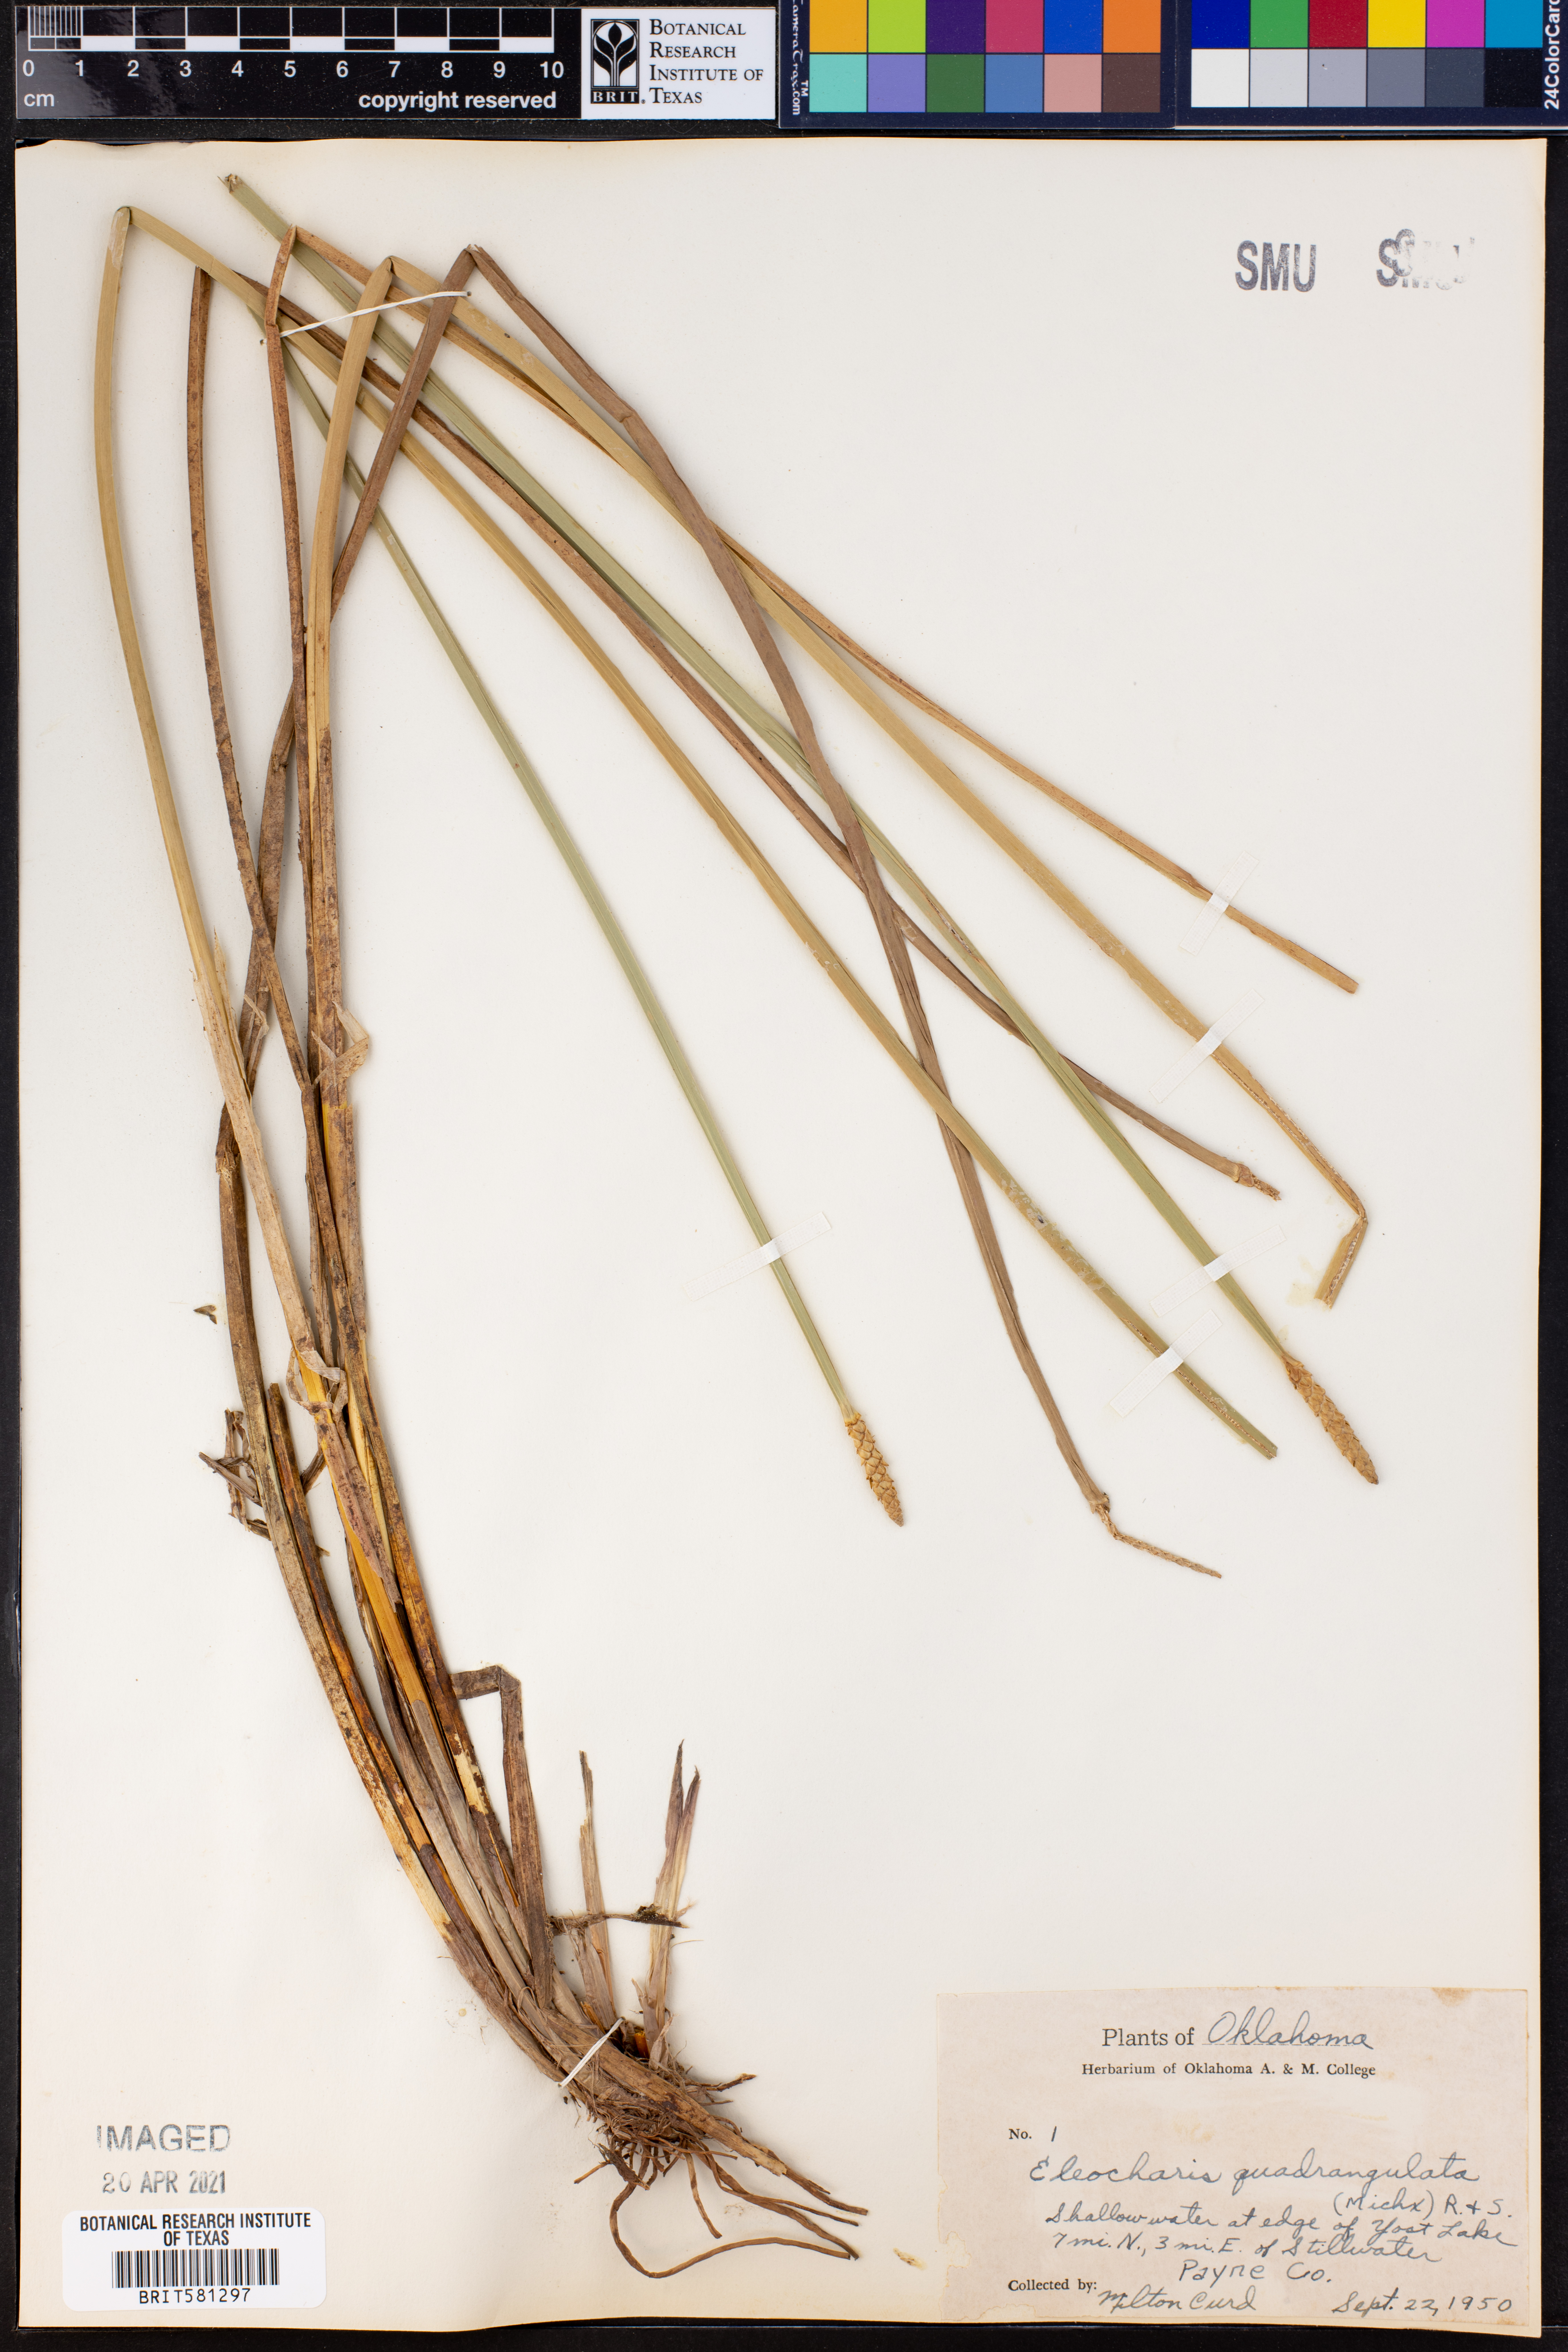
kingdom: Plantae
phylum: Tracheophyta
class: Liliopsida
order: Poales
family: Cyperaceae
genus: Eleocharis
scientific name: Eleocharis quadrangulata
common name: Square-stem spike-rush
